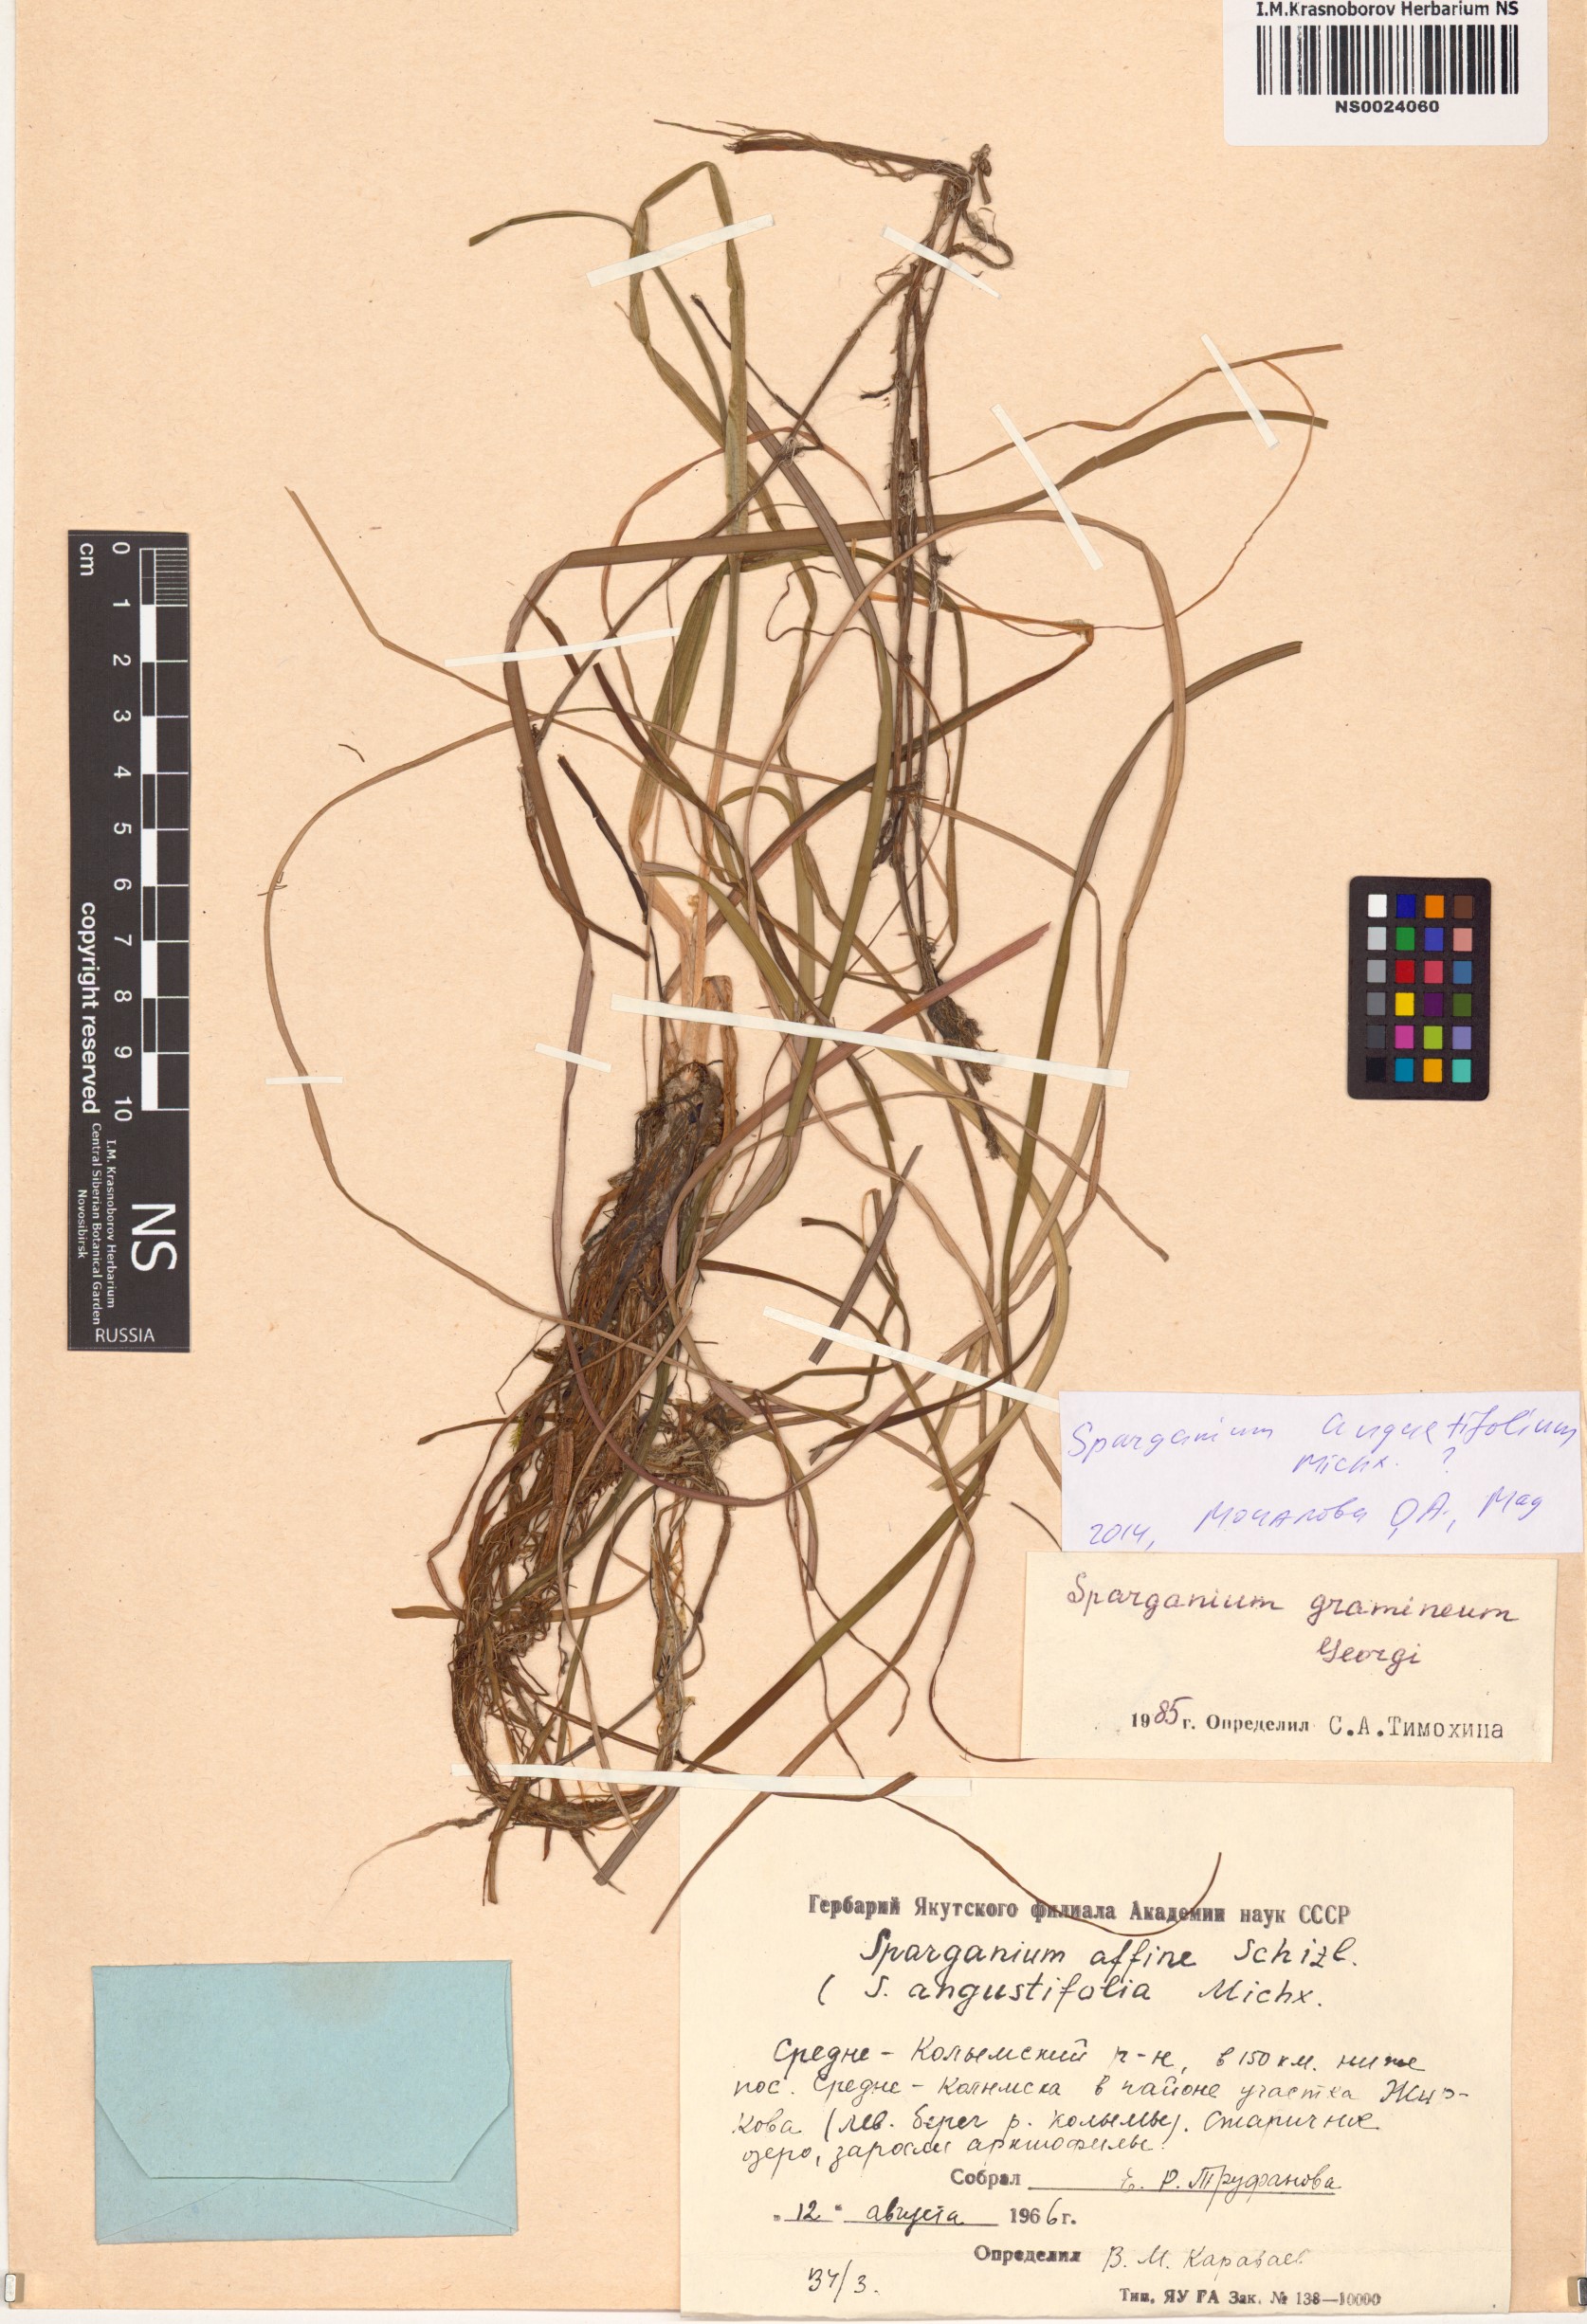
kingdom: Plantae
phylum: Tracheophyta
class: Liliopsida
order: Poales
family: Typhaceae
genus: Sparganium
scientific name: Sparganium angustifolium
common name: Floating bur-reed
